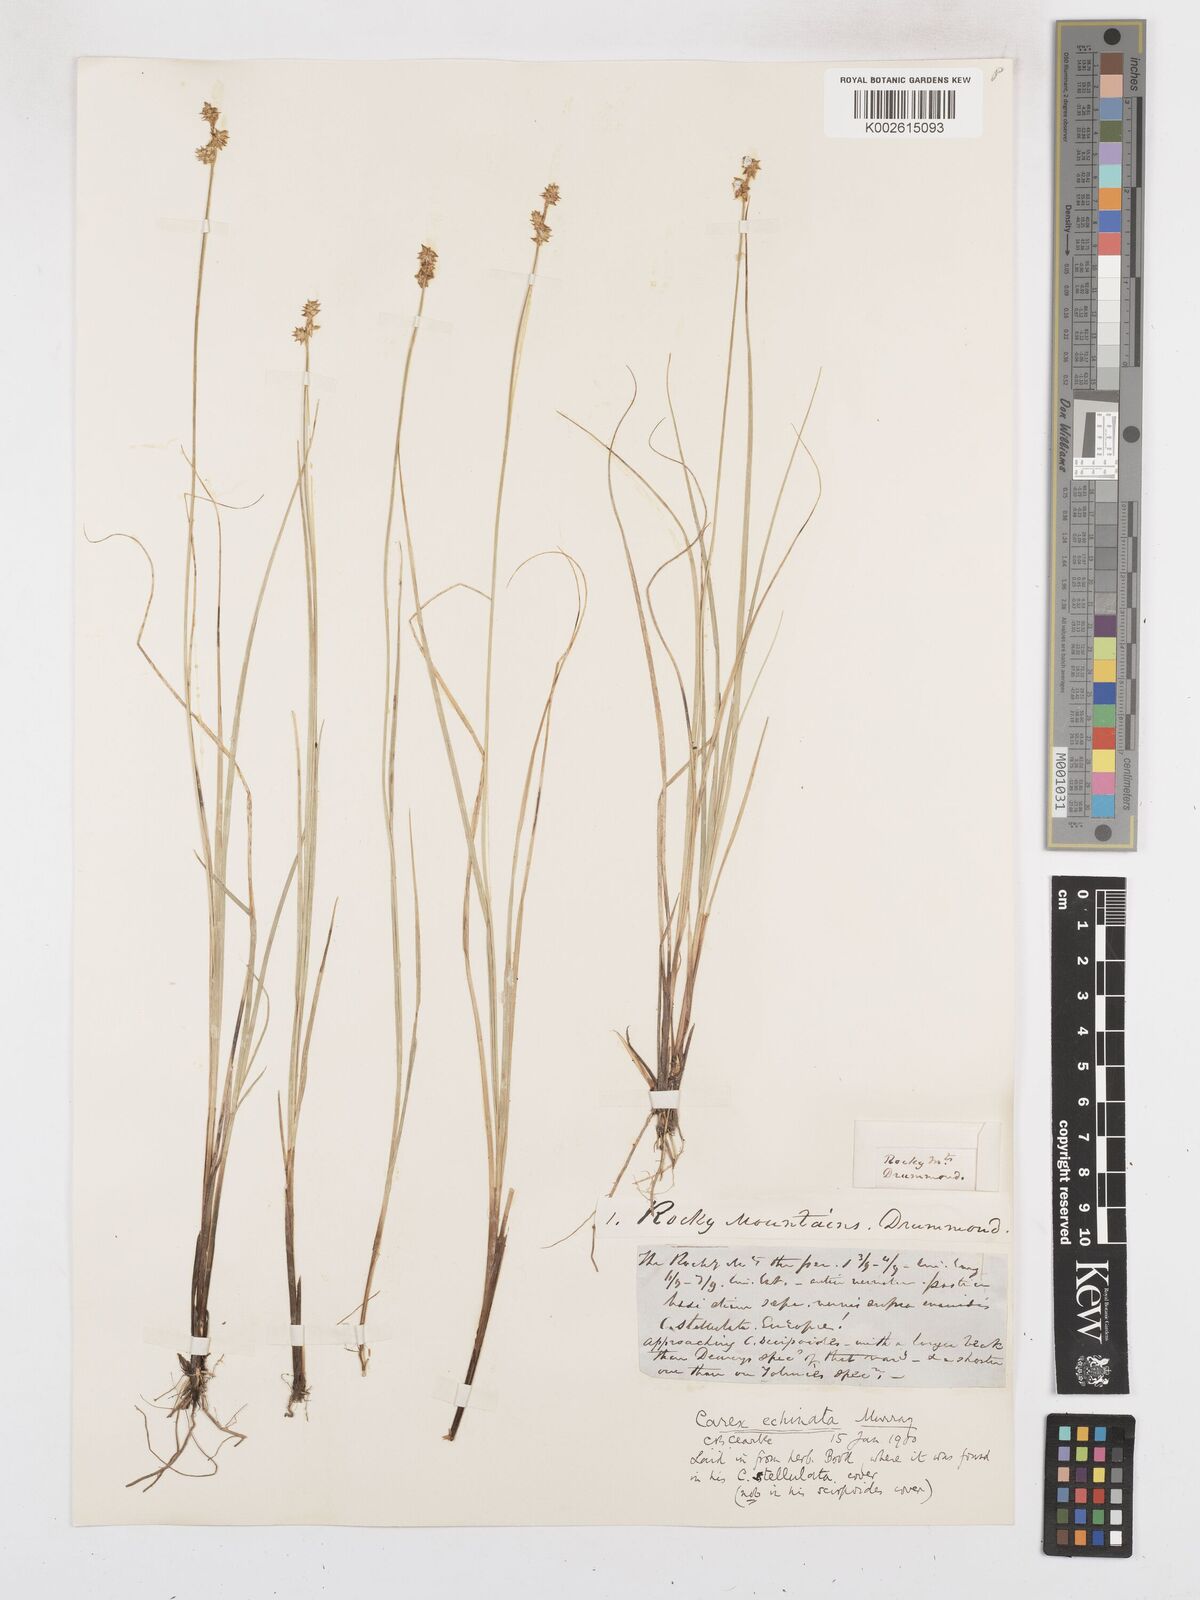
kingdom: Plantae
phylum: Tracheophyta
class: Liliopsida
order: Poales
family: Cyperaceae
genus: Carex
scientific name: Carex echinata
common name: Star sedge
